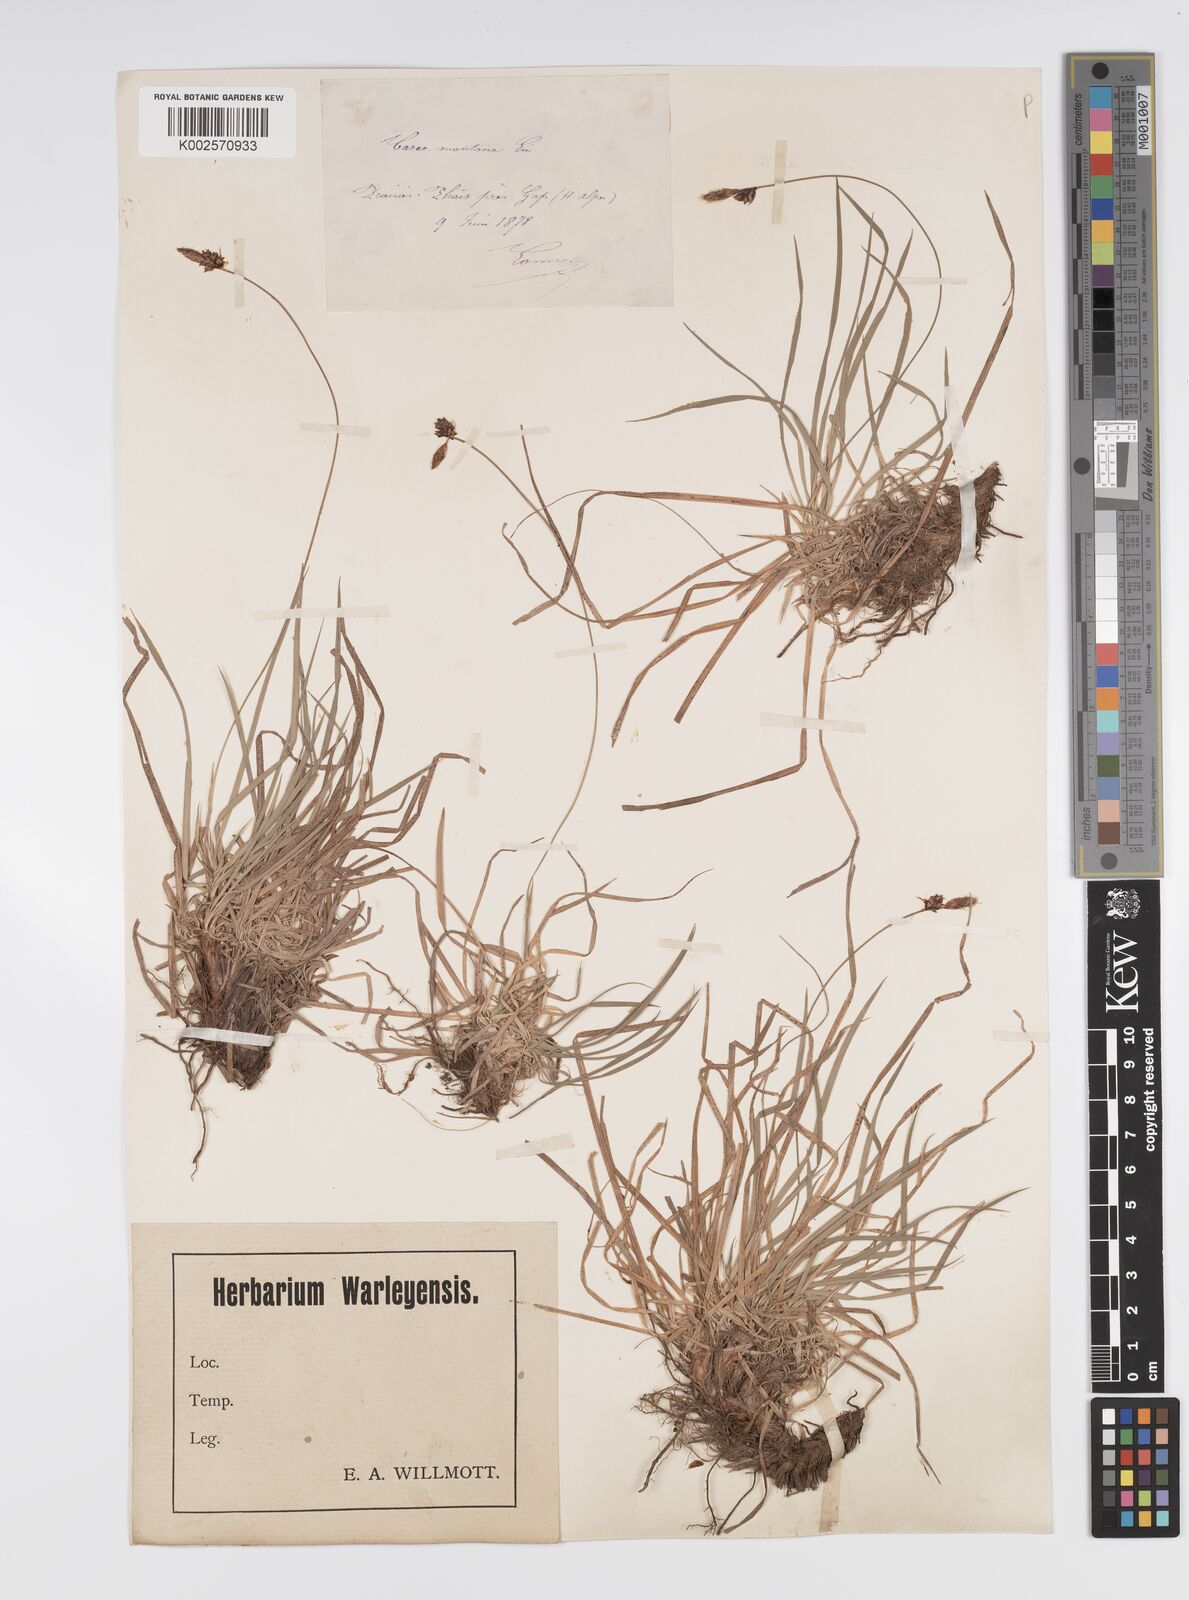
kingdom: Plantae
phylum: Tracheophyta
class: Liliopsida
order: Poales
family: Cyperaceae
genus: Carex
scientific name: Carex montana
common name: Soft-leaved sedge
